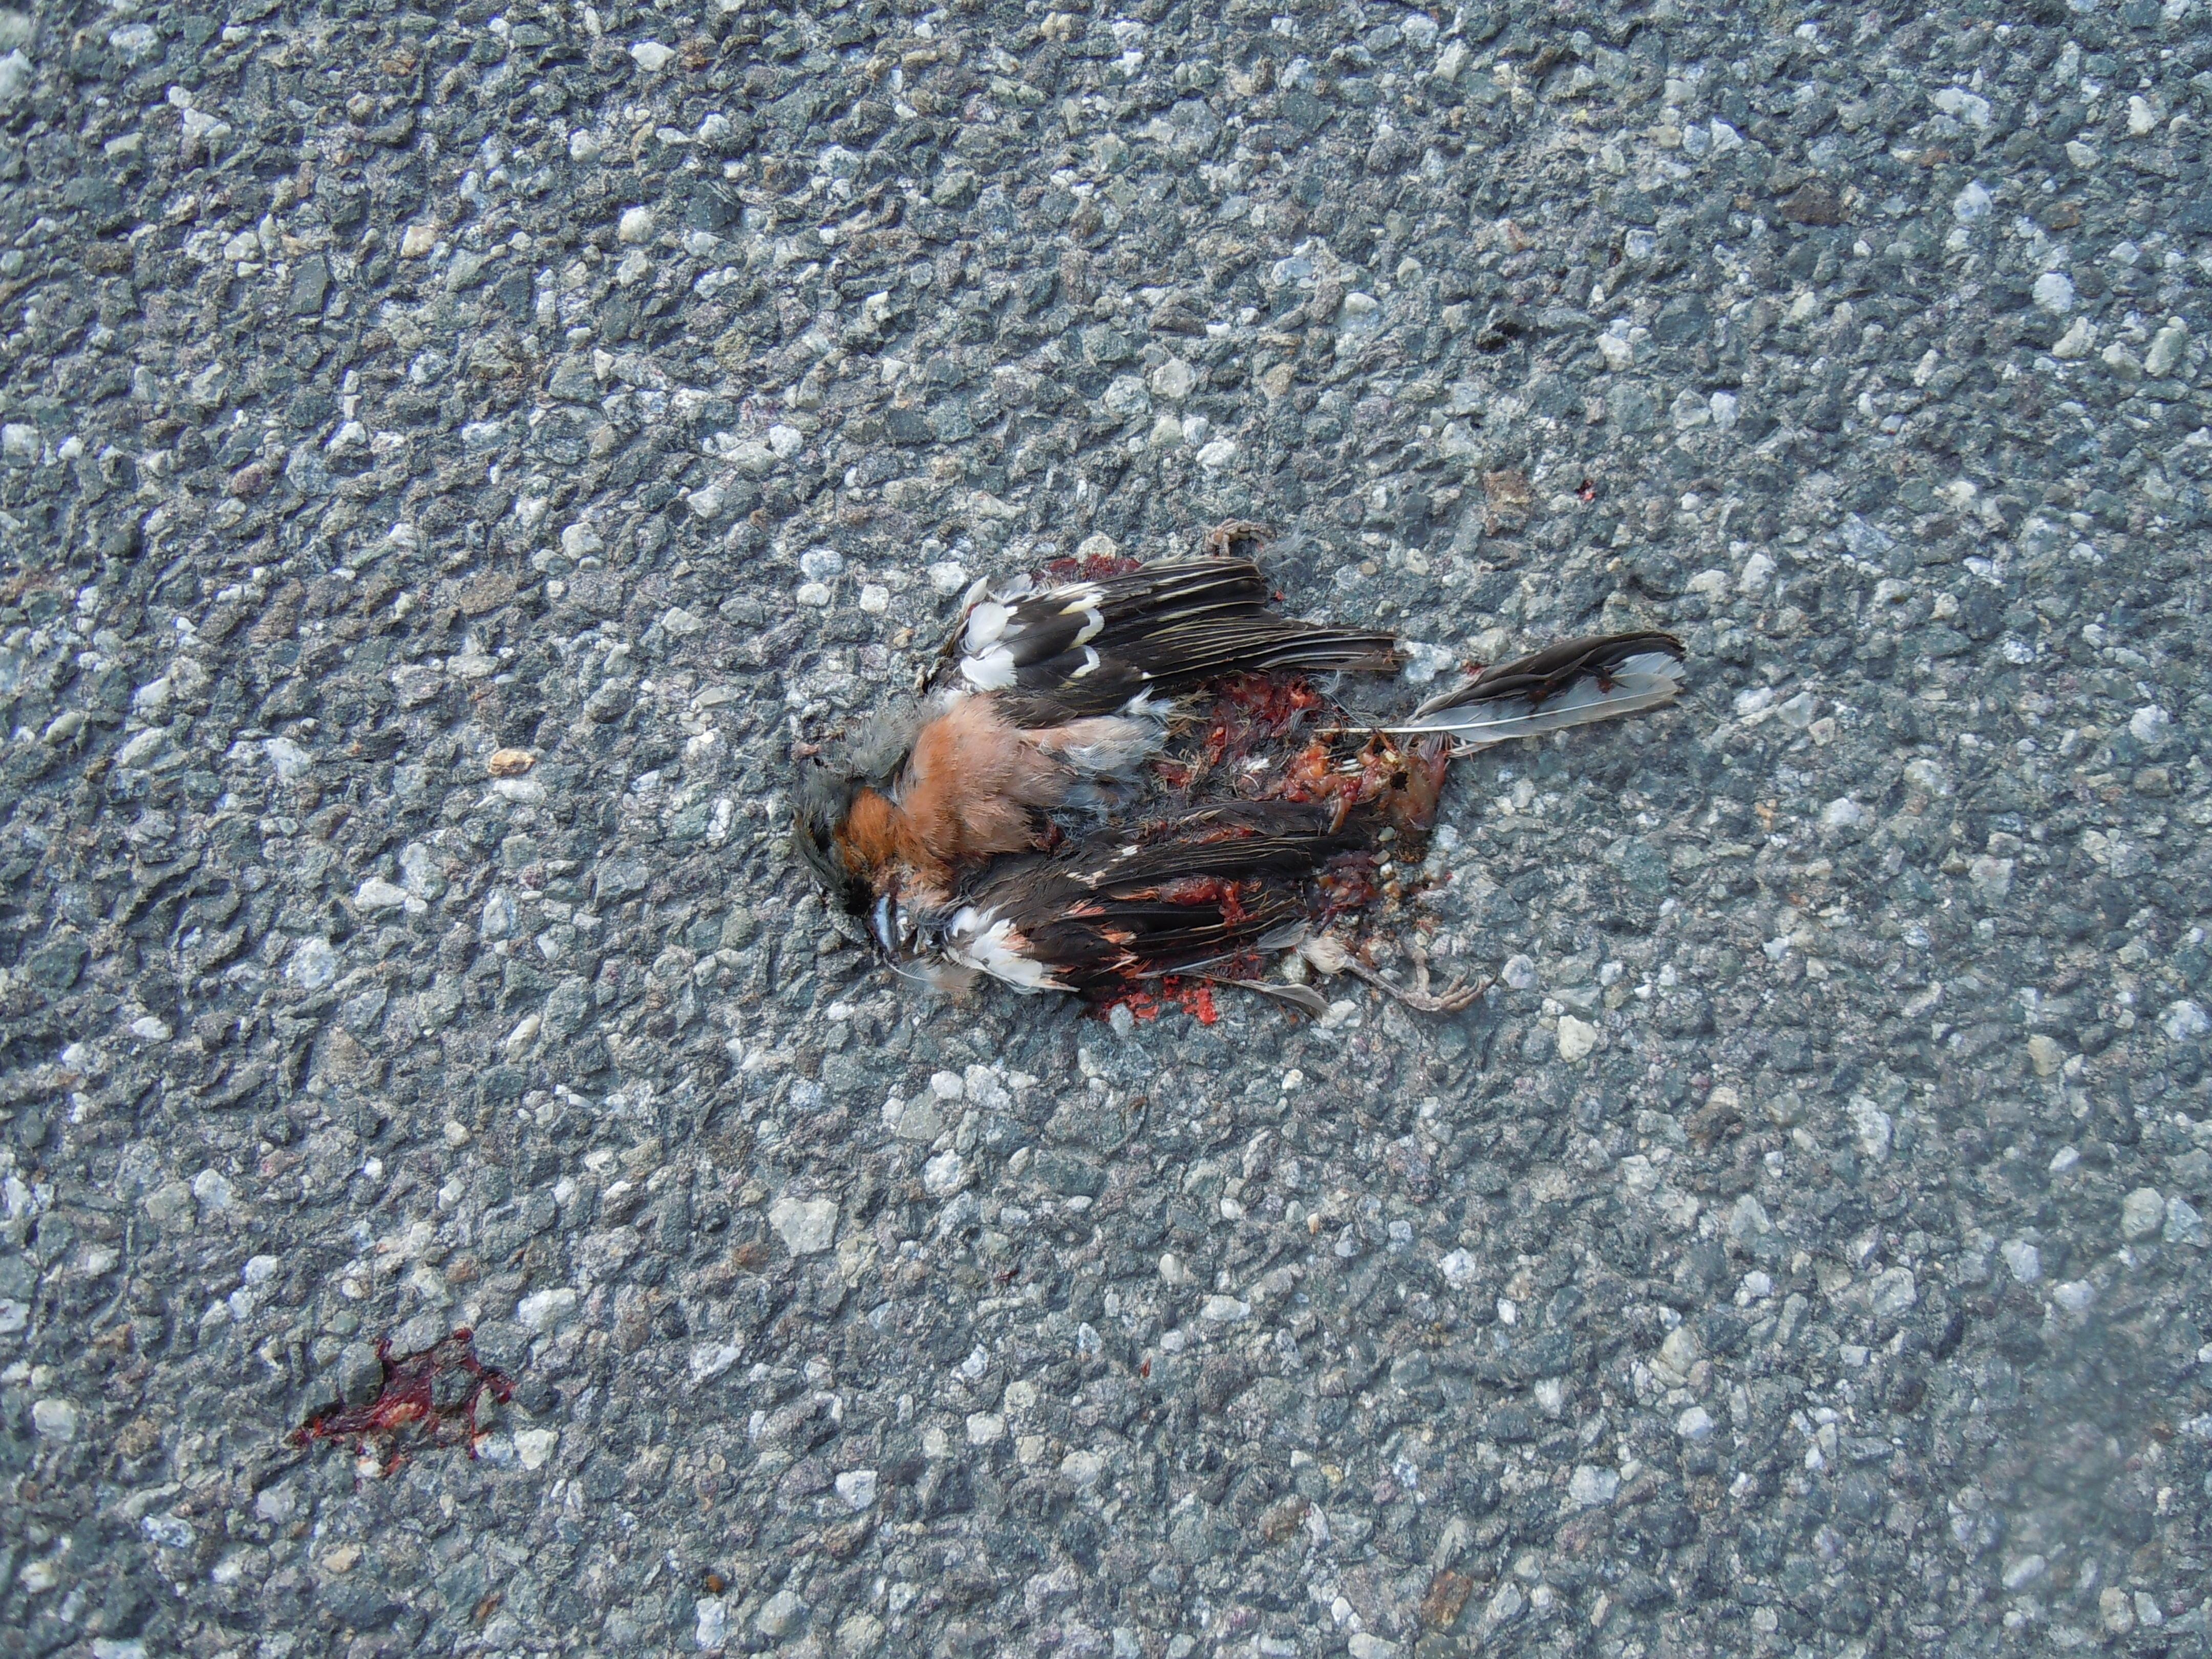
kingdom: Animalia
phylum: Chordata
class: Aves
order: Passeriformes
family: Fringillidae
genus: Fringilla
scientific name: Fringilla coelebs
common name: Common chaffinch
